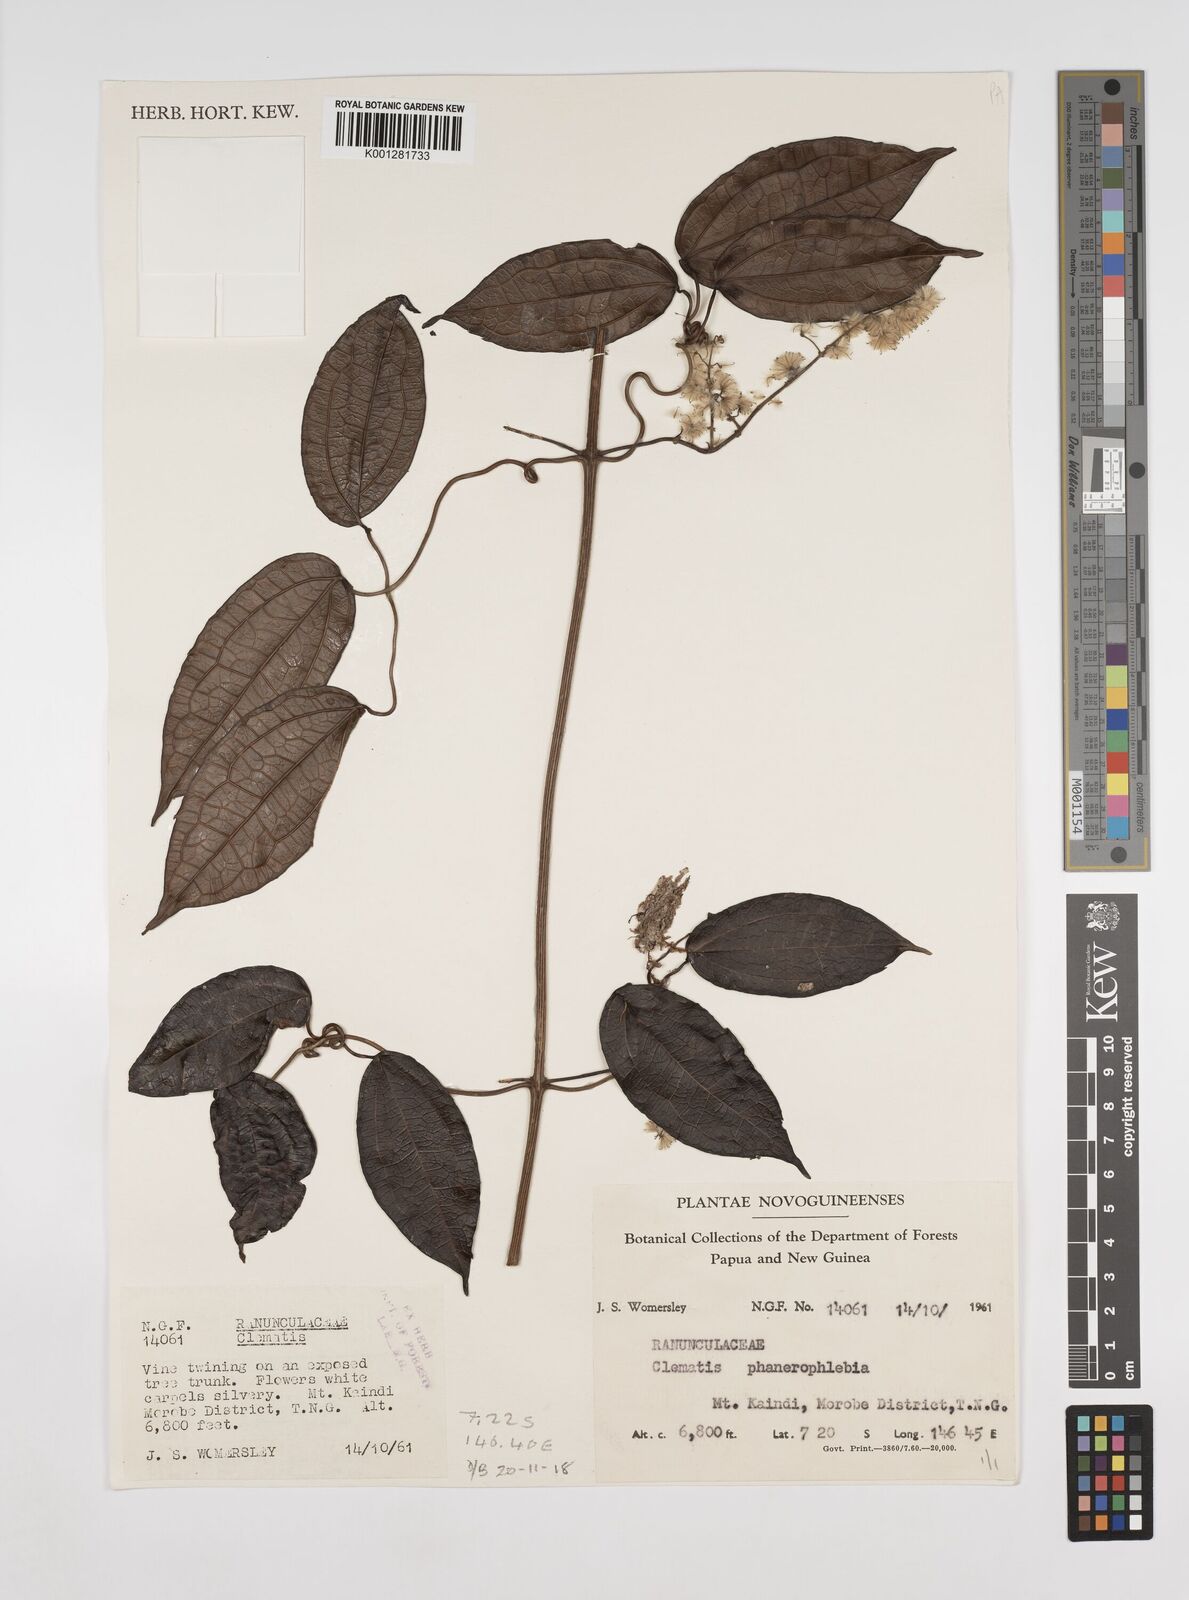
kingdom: Plantae
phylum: Tracheophyta
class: Magnoliopsida
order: Ranunculales
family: Ranunculaceae
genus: Clematis
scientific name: Clematis phanerophlebia
